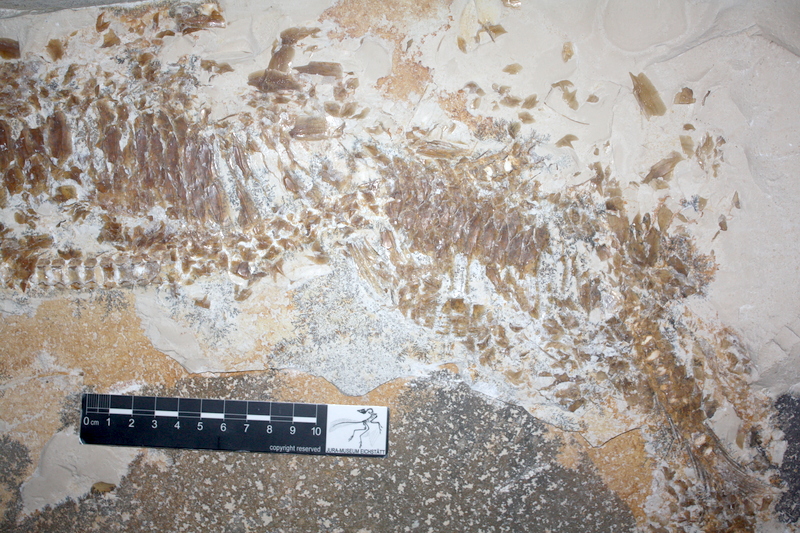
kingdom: Animalia
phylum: Chordata
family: Aspidorhynchidae
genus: Aspidorhynchus
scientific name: Aspidorhynchus acutirostris
